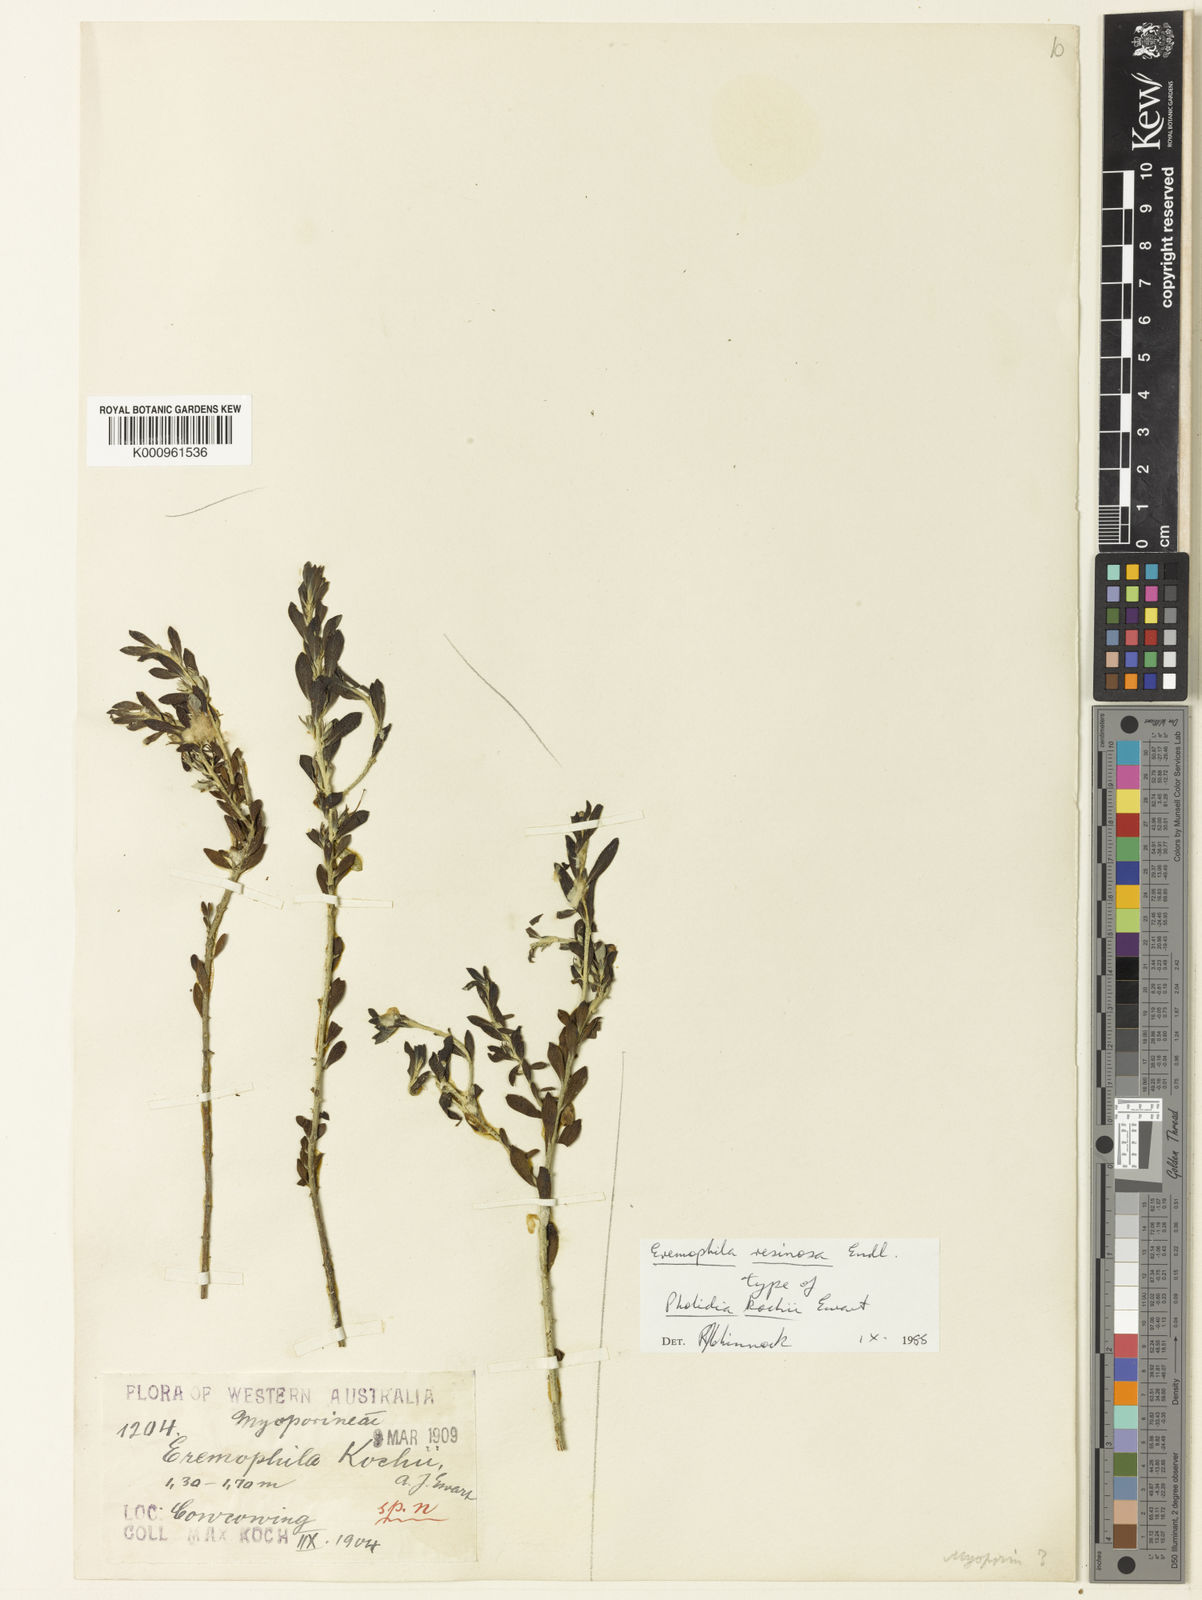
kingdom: Plantae
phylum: Tracheophyta
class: Magnoliopsida
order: Lamiales
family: Scrophulariaceae
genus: Eremophila
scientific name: Eremophila resinosa
